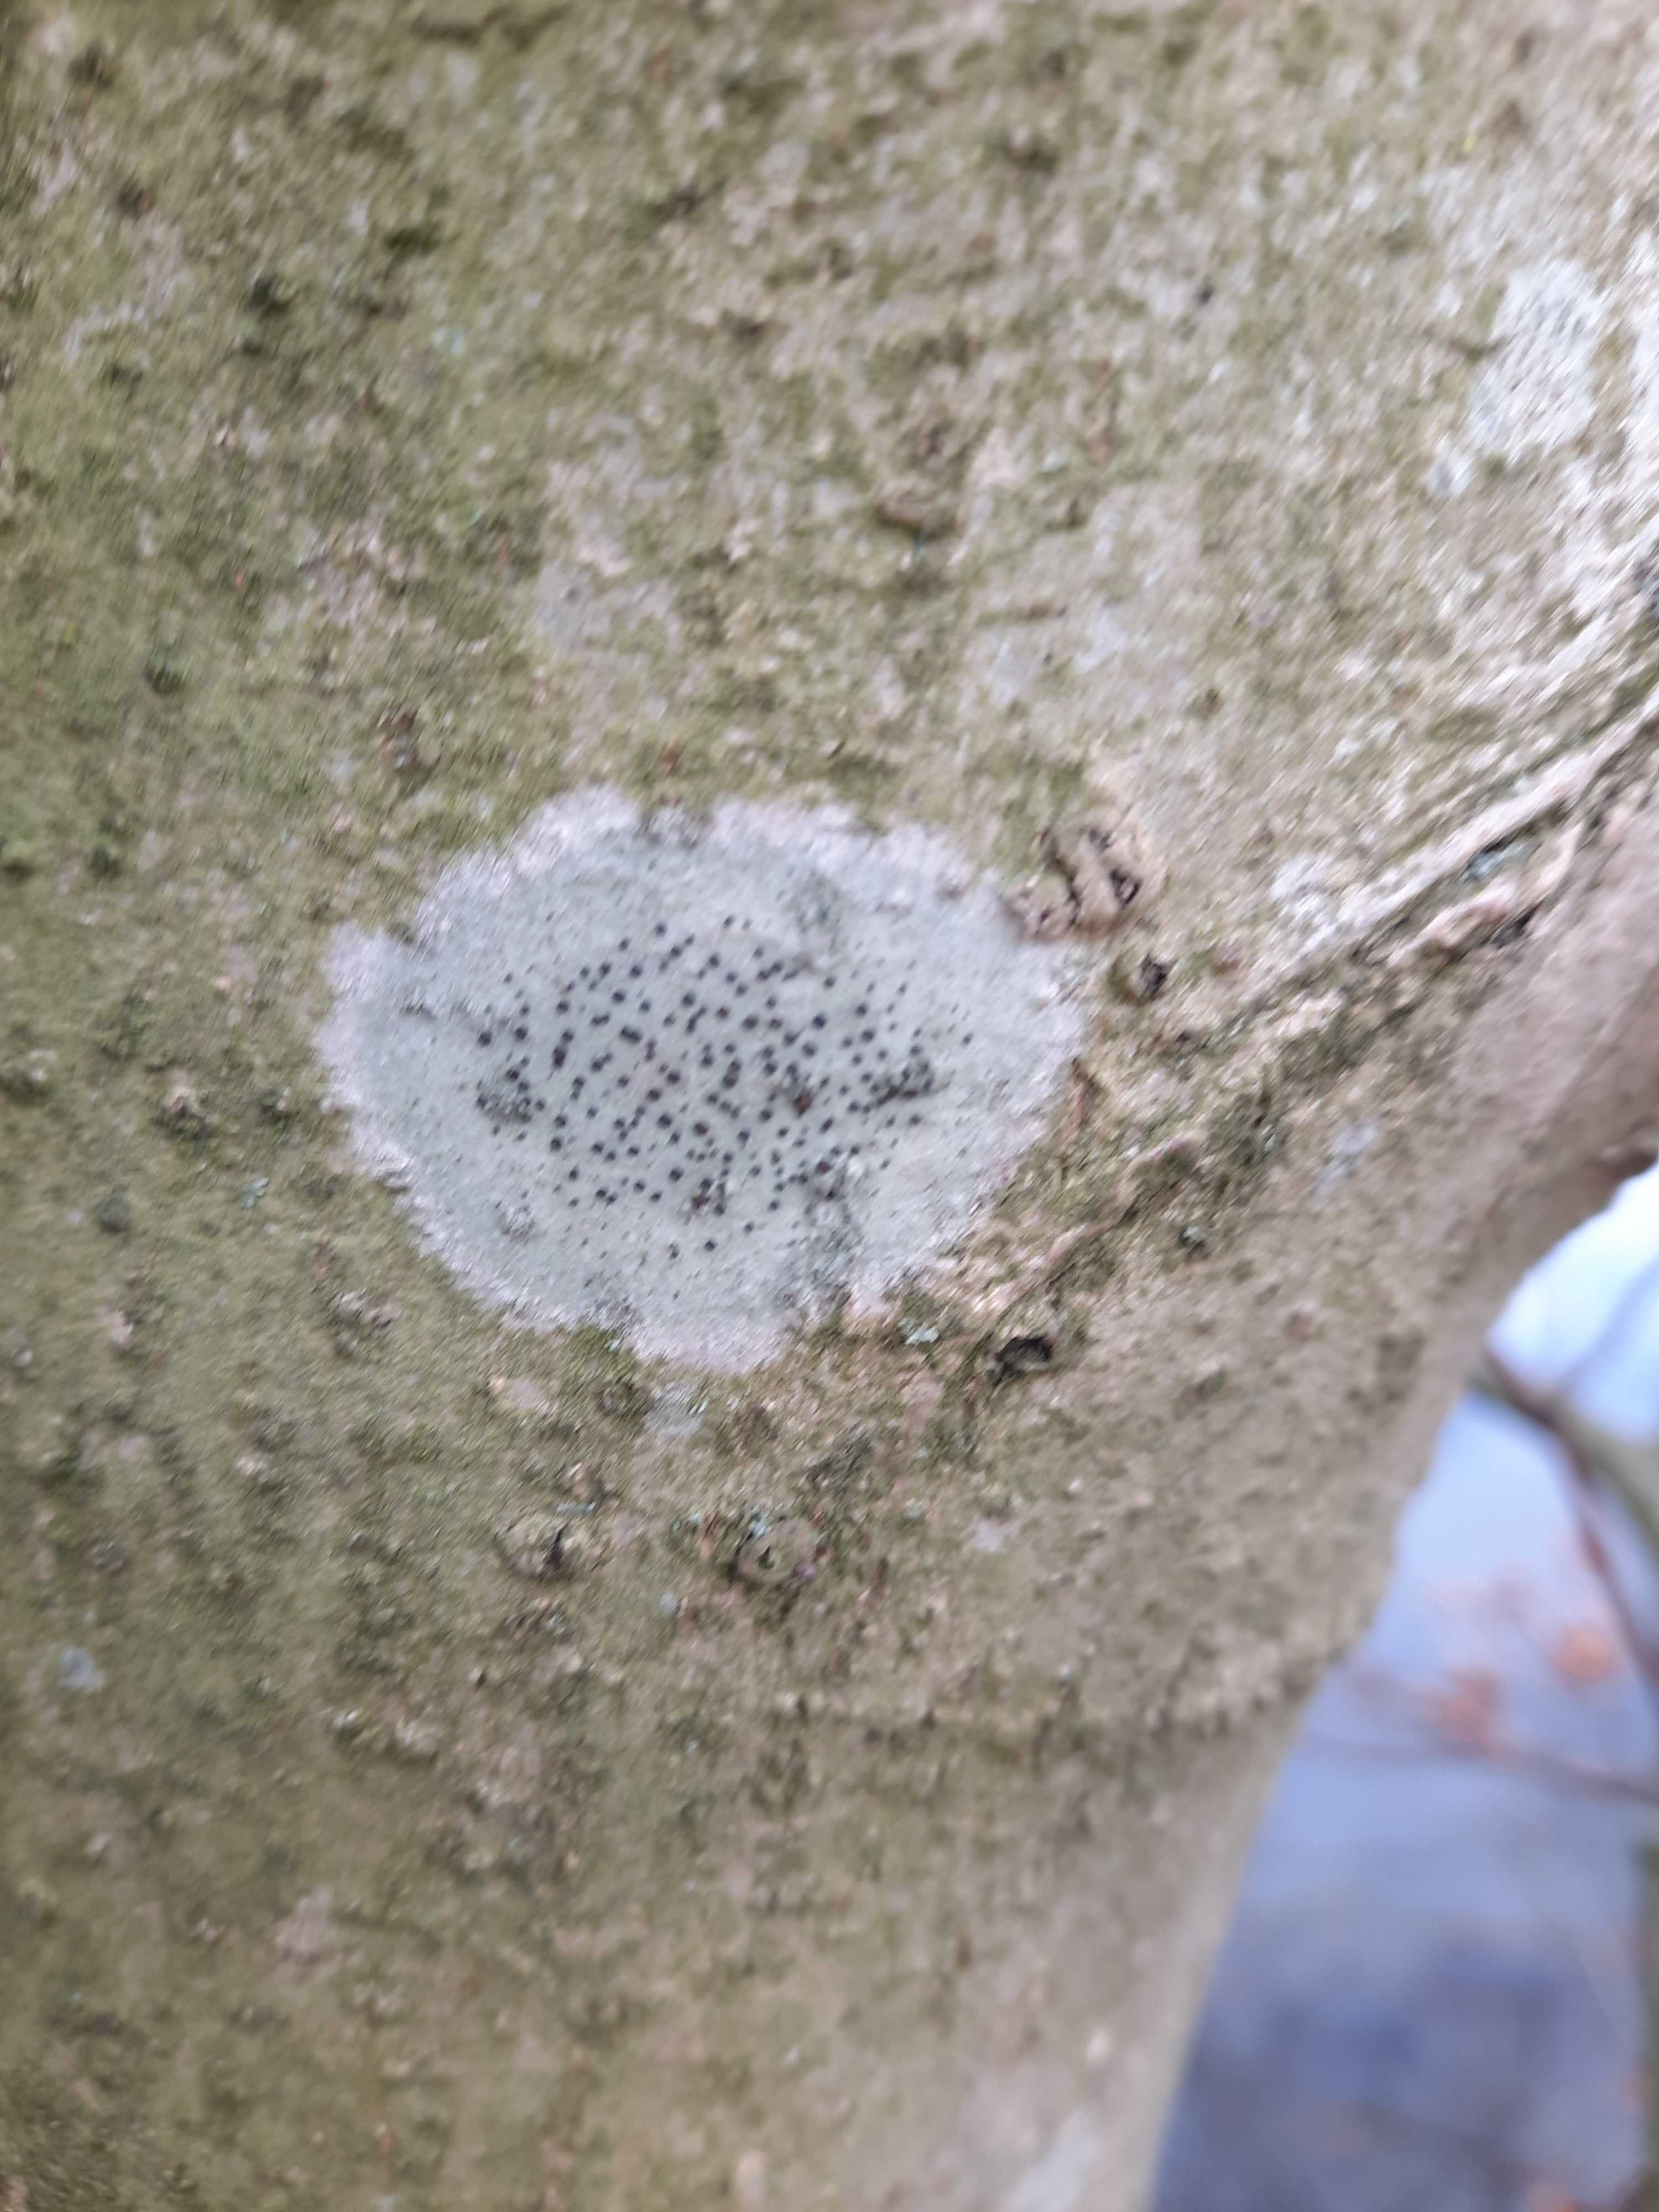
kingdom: Fungi
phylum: Ascomycota
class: Lecanoromycetes
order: Lecanorales
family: Lecanoraceae
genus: Lecidella
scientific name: Lecidella
